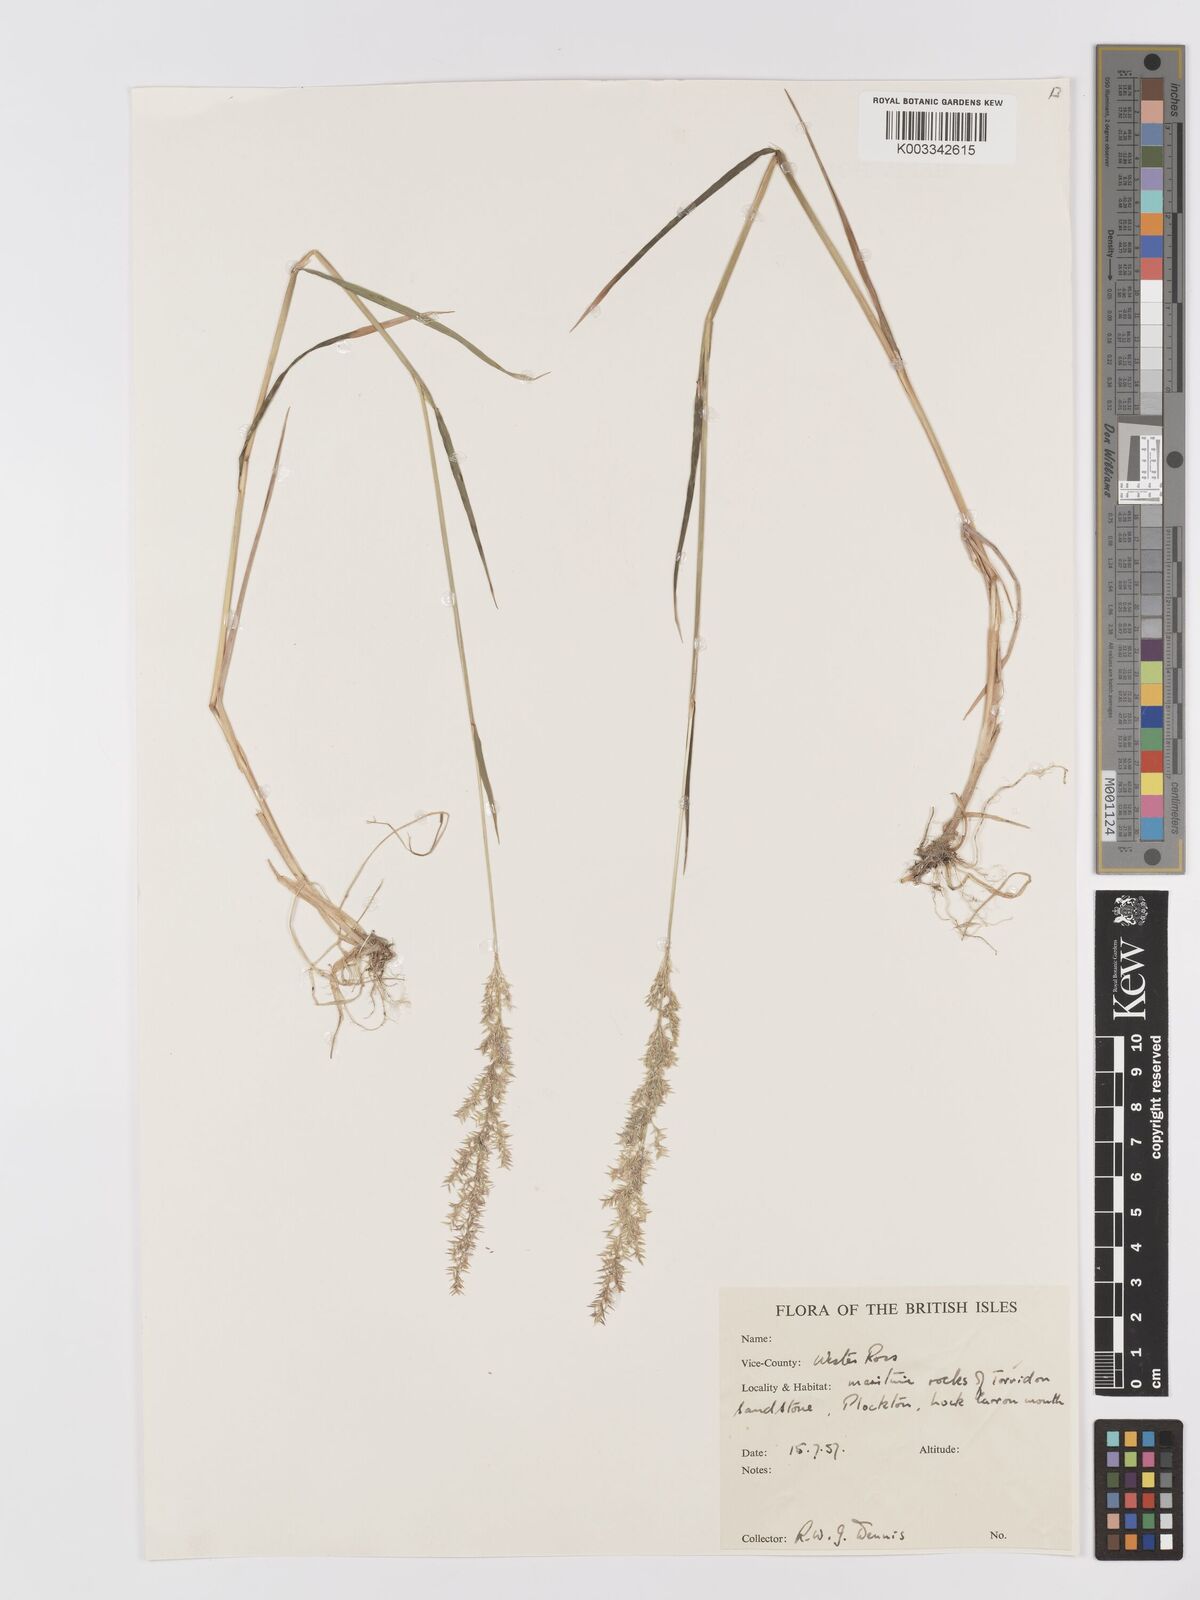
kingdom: Plantae
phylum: Tracheophyta
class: Liliopsida
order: Poales
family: Poaceae
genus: Agrostis
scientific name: Agrostis
